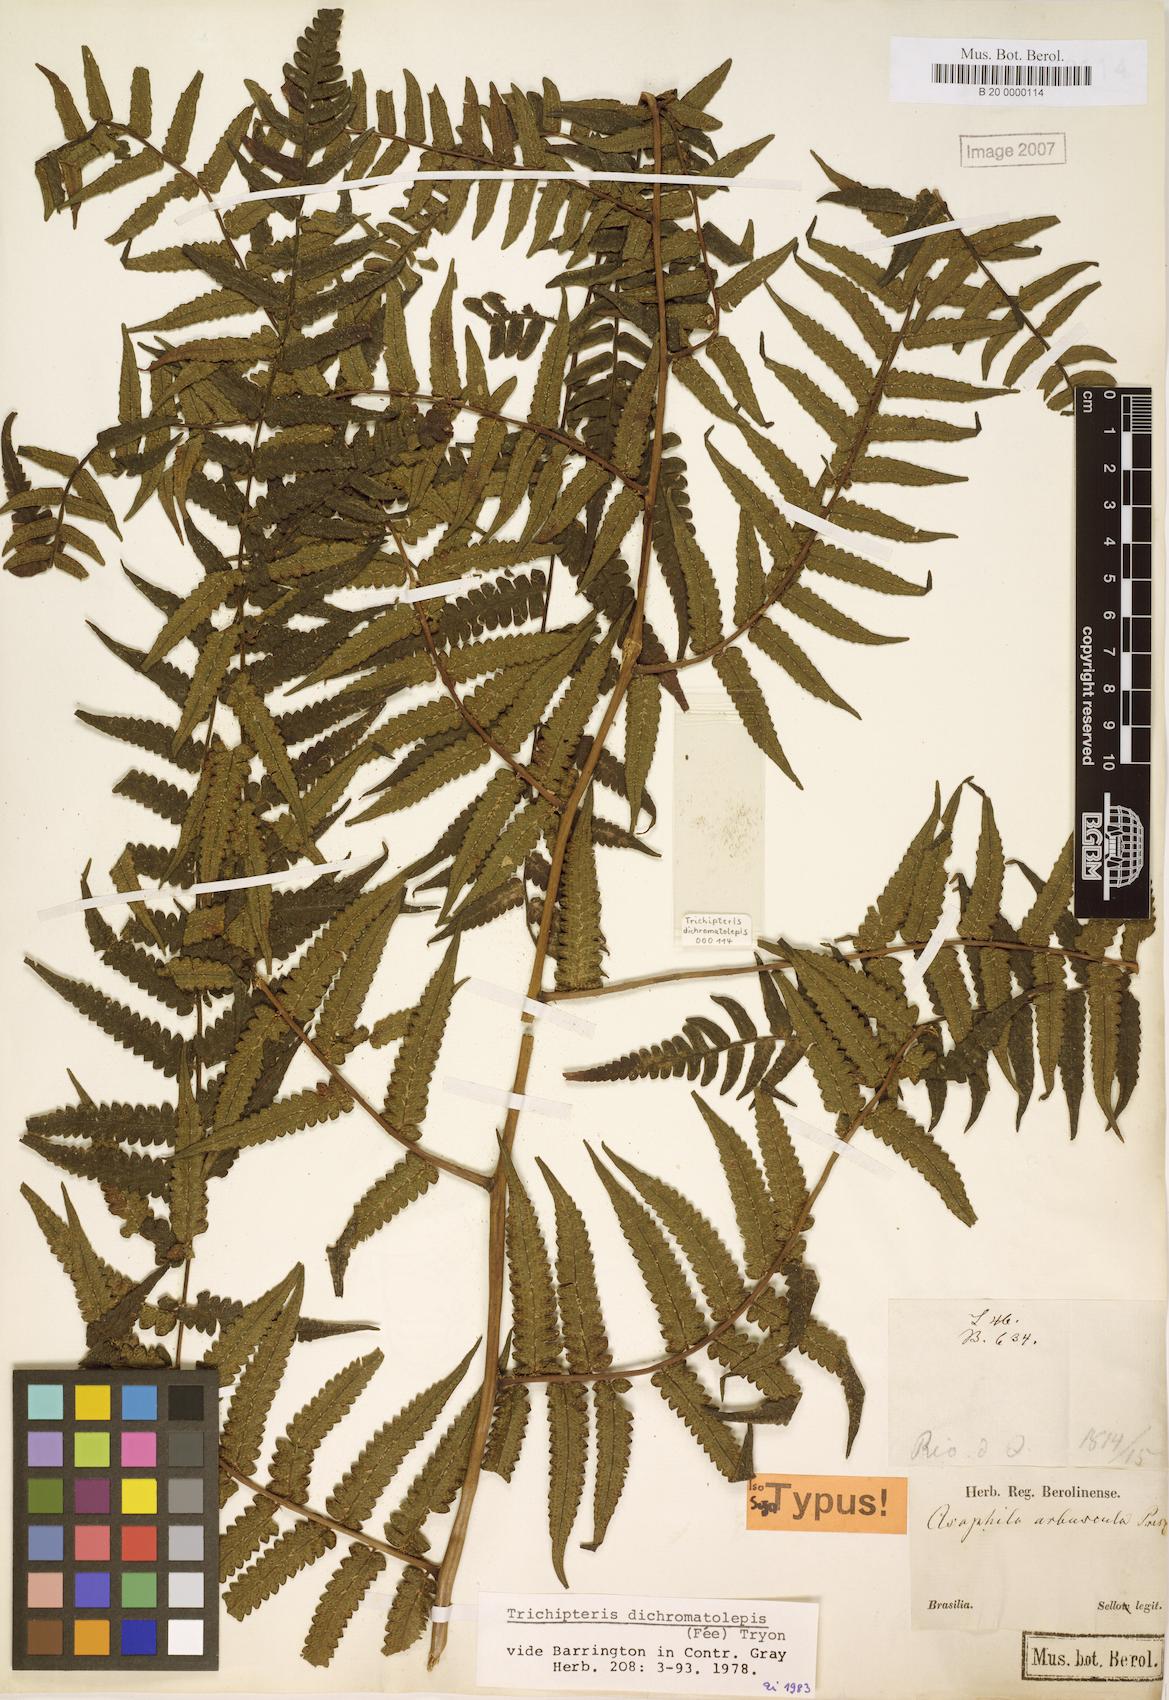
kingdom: Plantae
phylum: Tracheophyta
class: Polypodiopsida
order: Cyatheales
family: Cyatheaceae
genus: Cyathea
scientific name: Cyathea dichromatolepis
